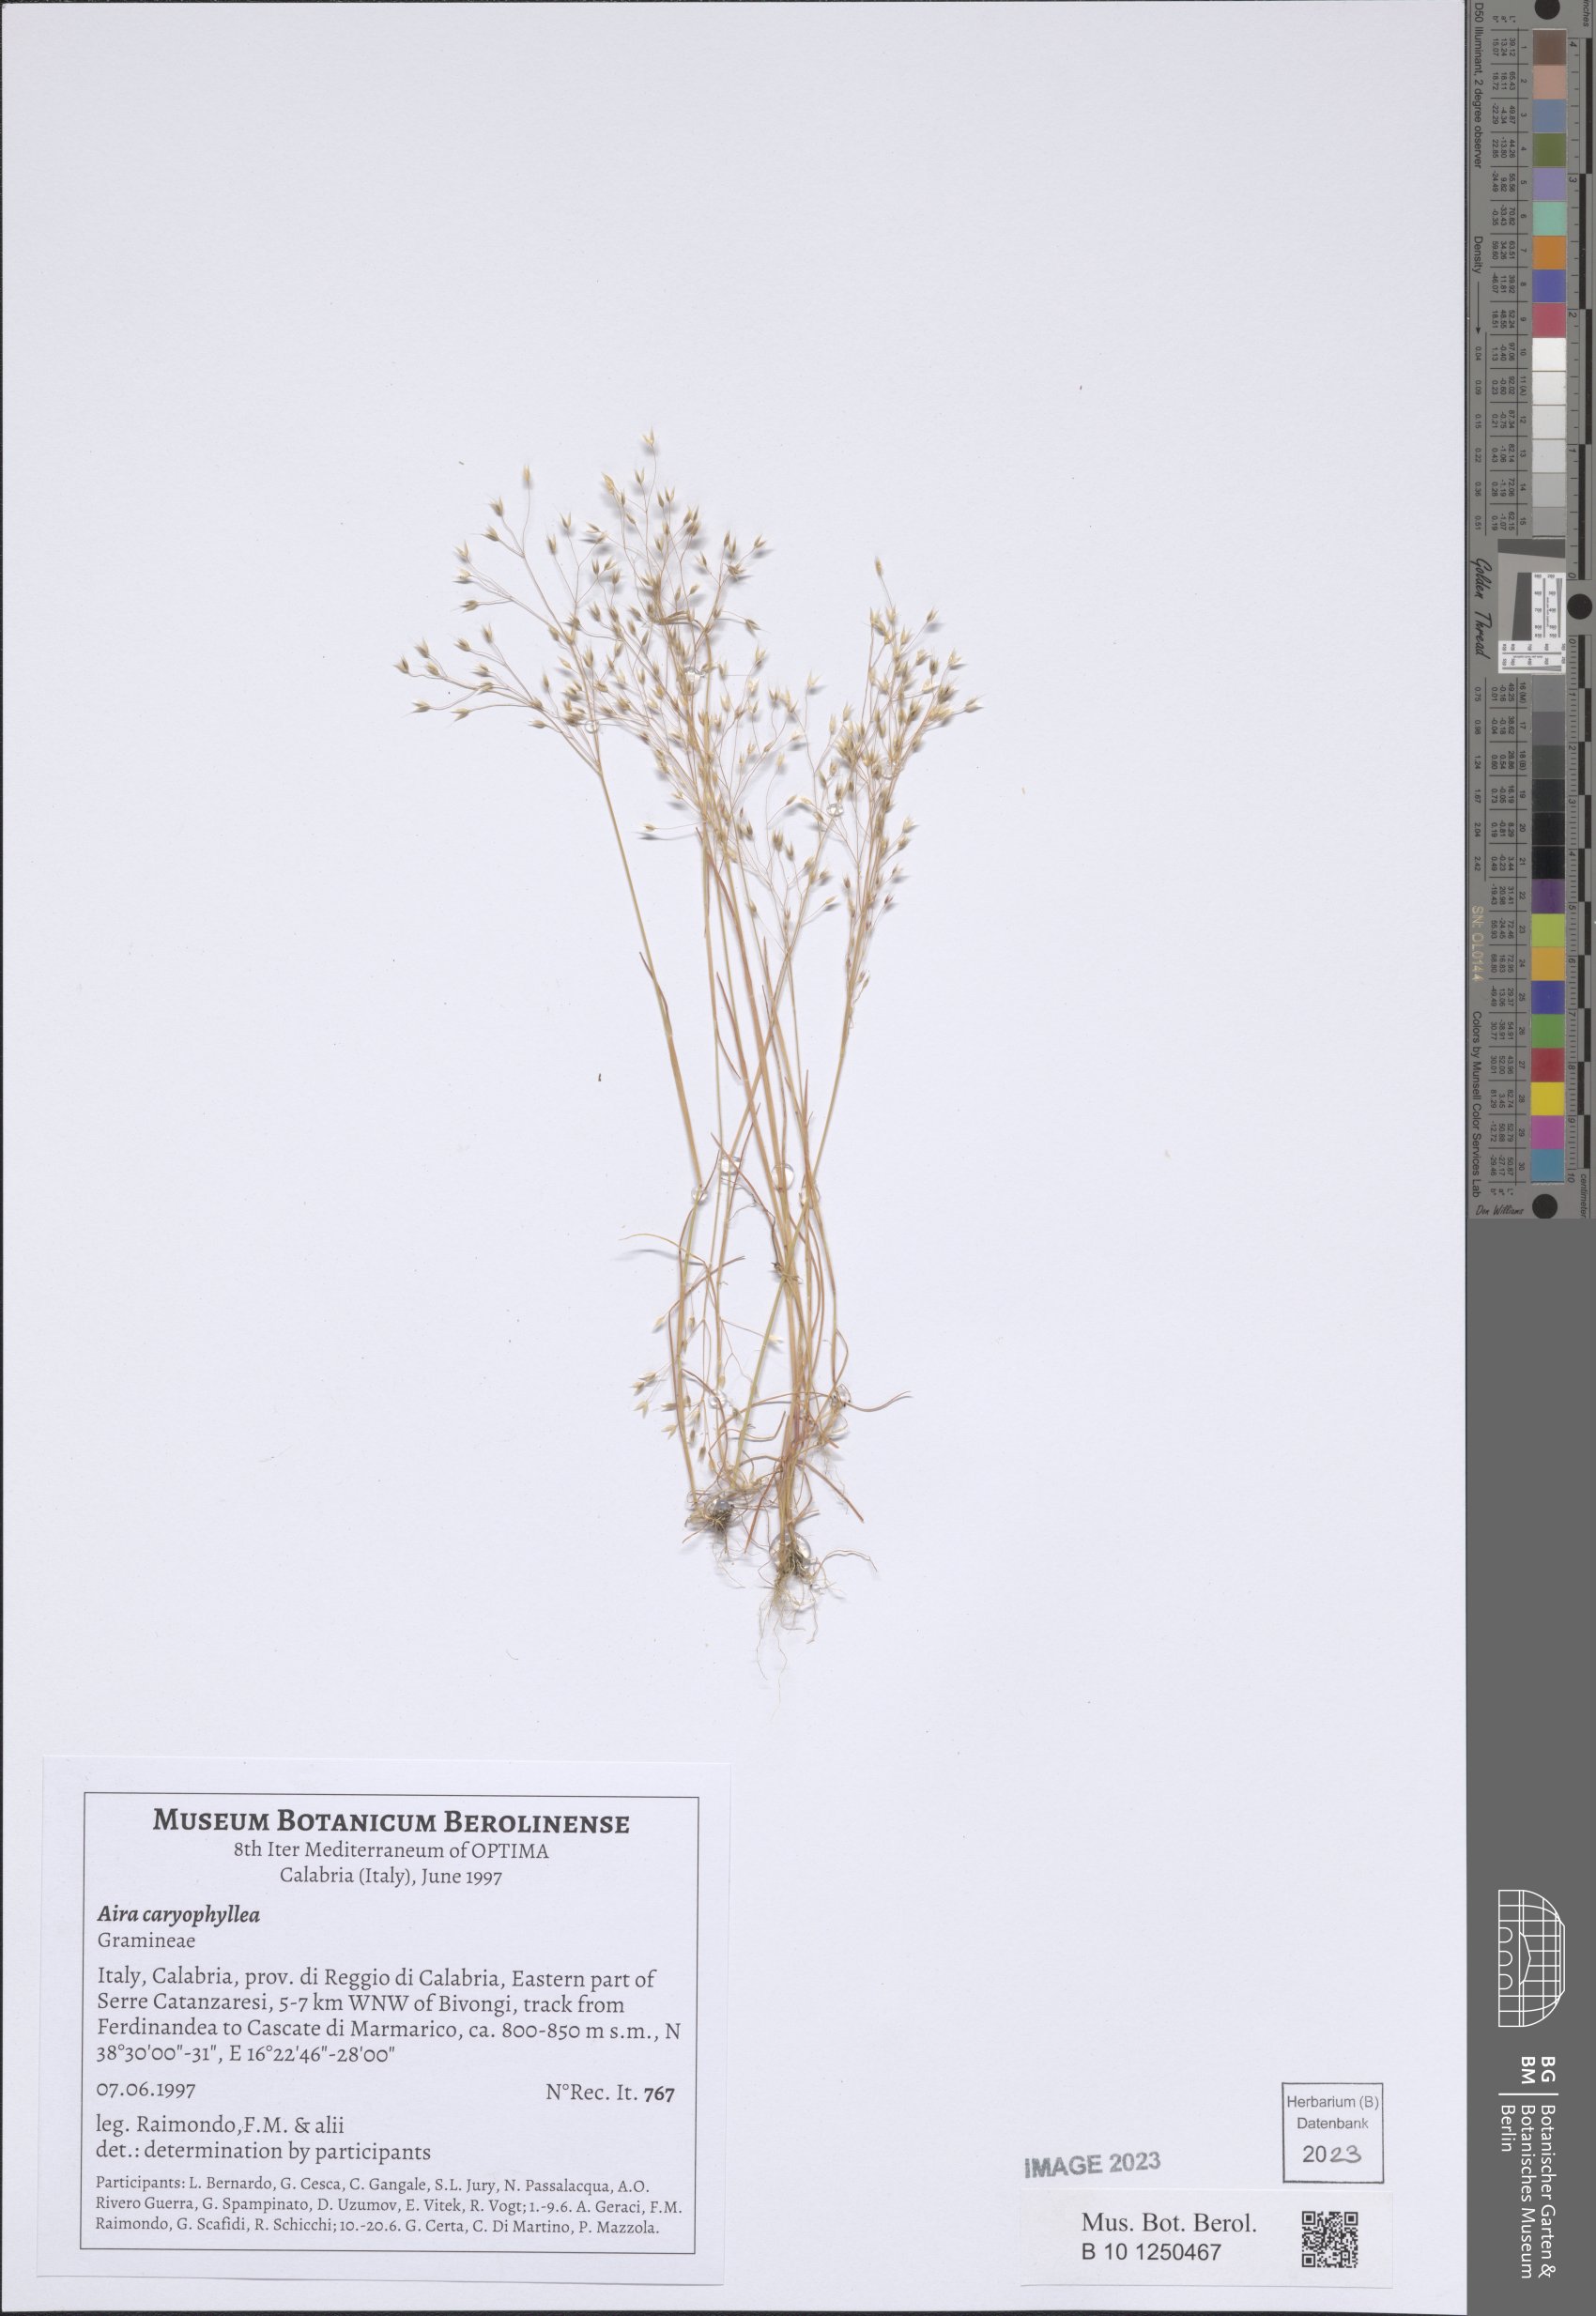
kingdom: Plantae
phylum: Tracheophyta
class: Liliopsida
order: Poales
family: Poaceae
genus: Aira
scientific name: Aira caryophyllea
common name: Silver hairgrass
